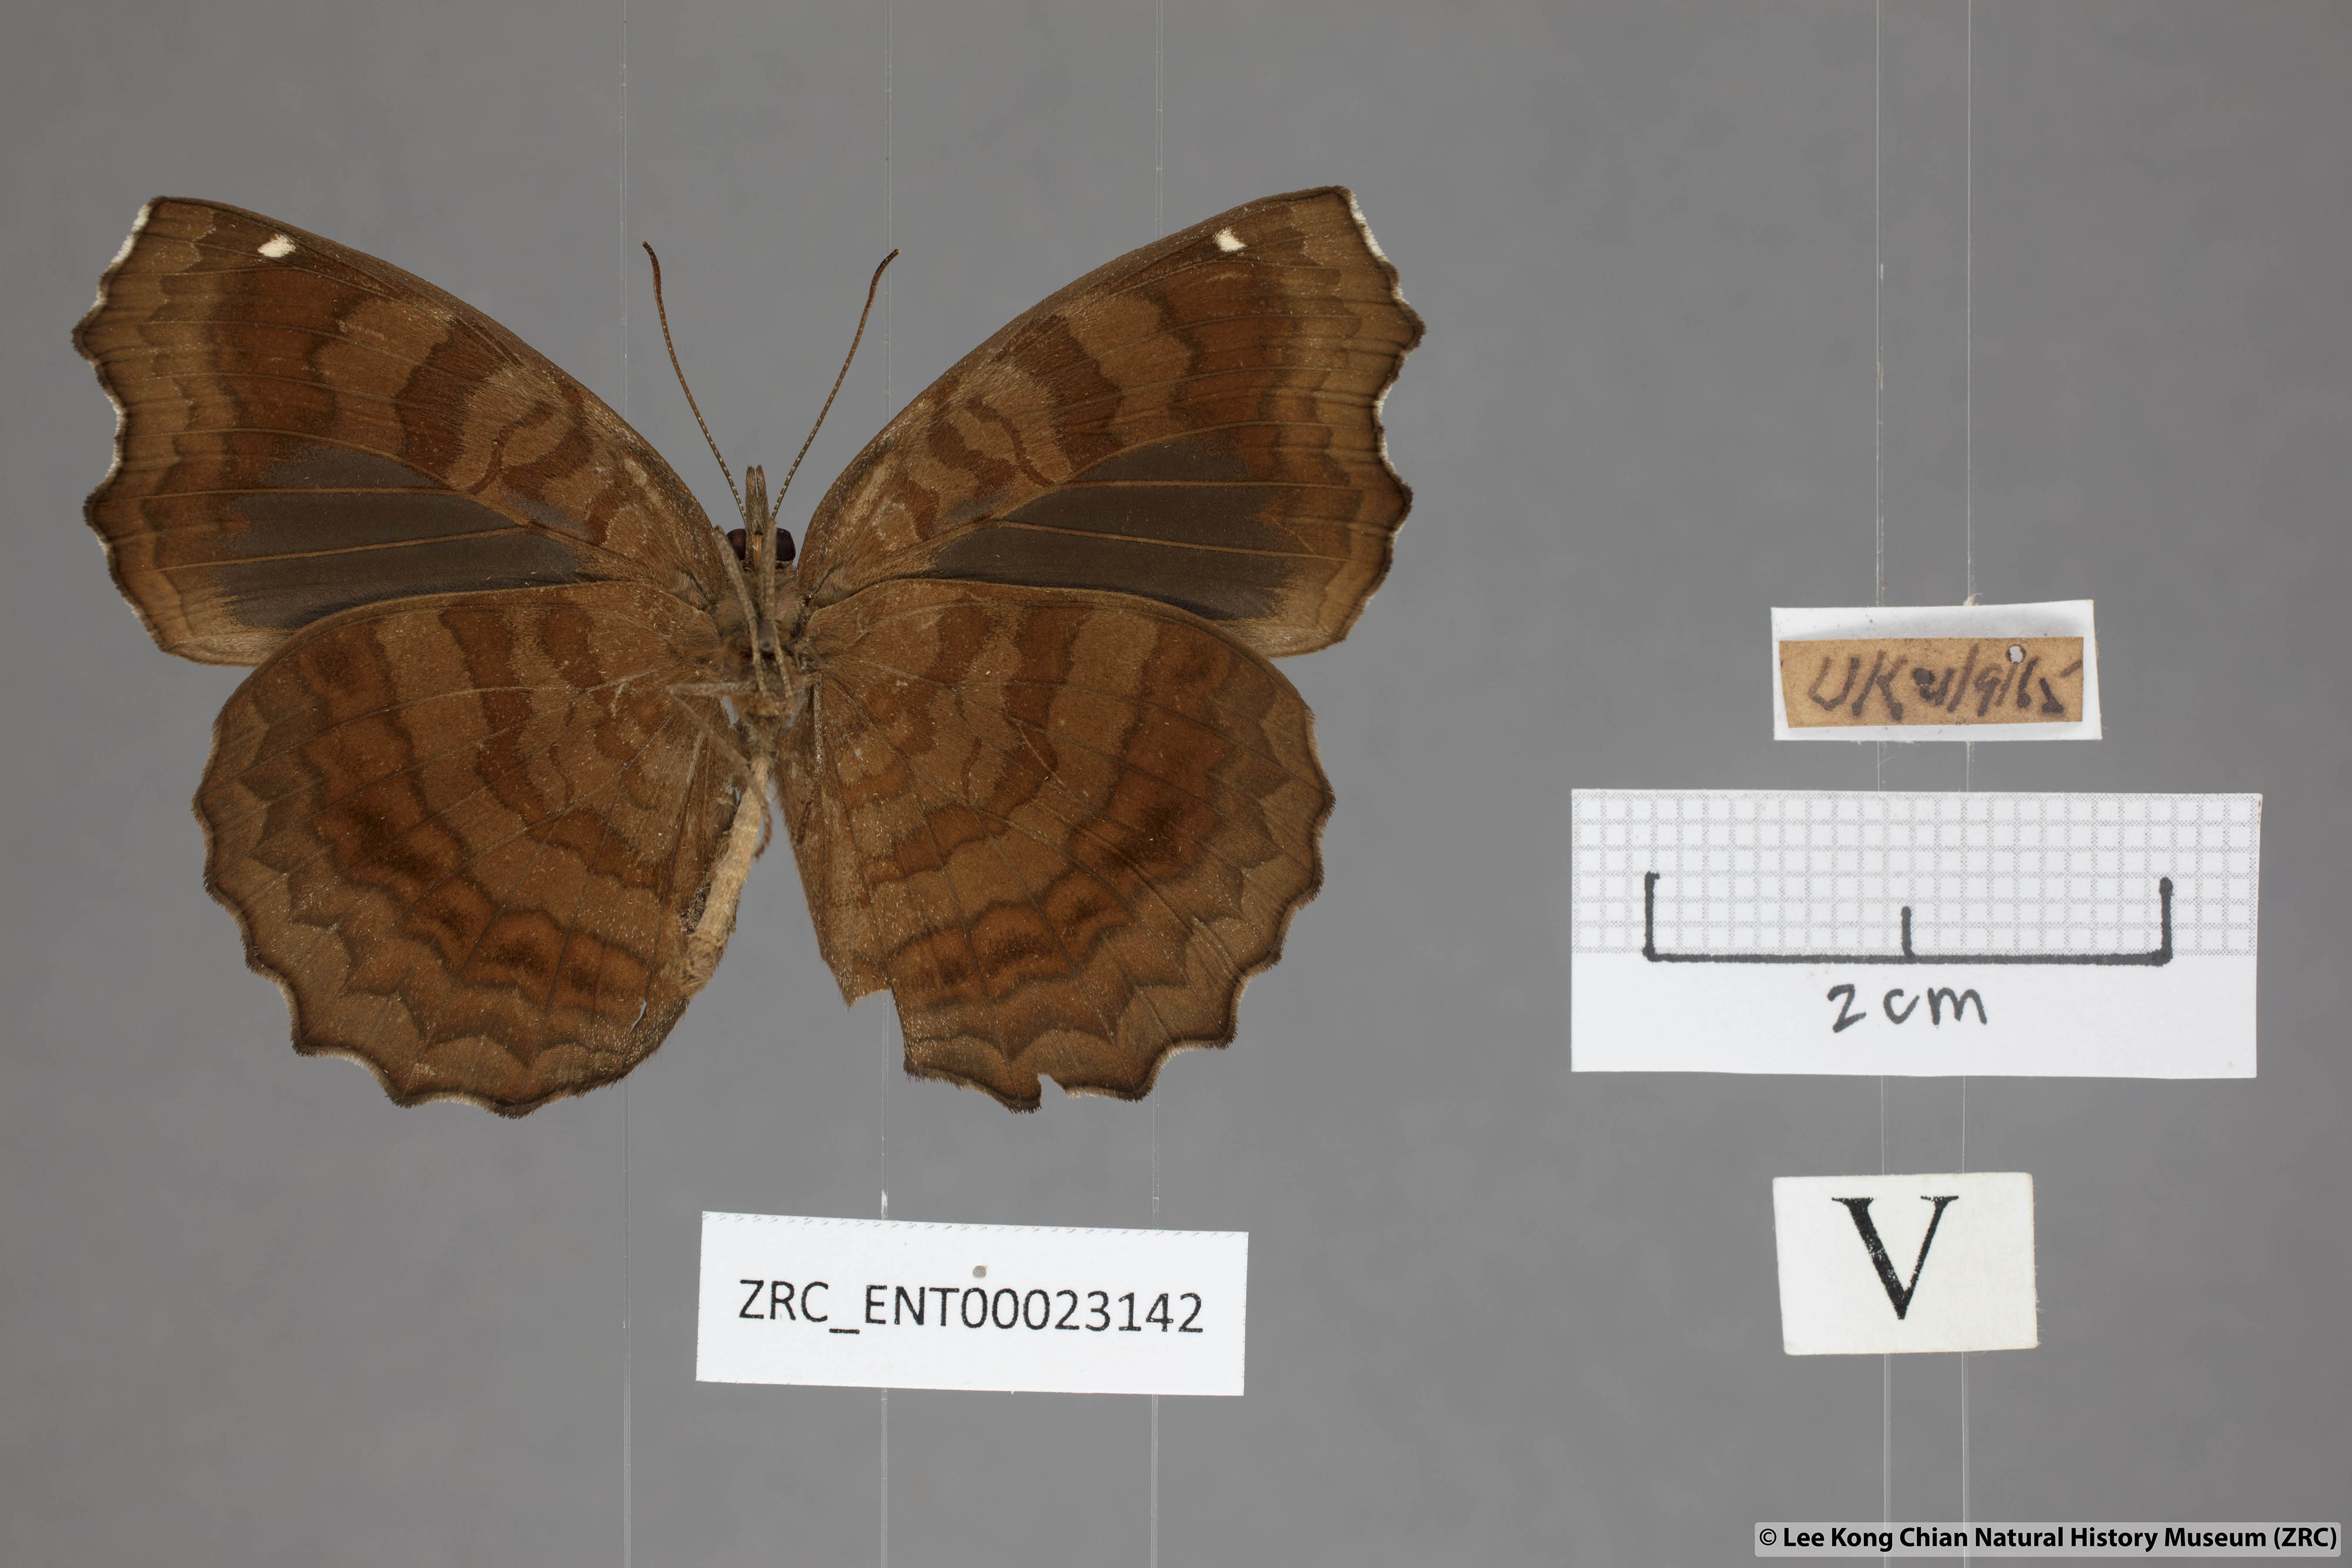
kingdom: Animalia
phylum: Arthropoda
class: Insecta
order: Lepidoptera
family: Nymphalidae
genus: Ariadne
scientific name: Ariadne ariadne
